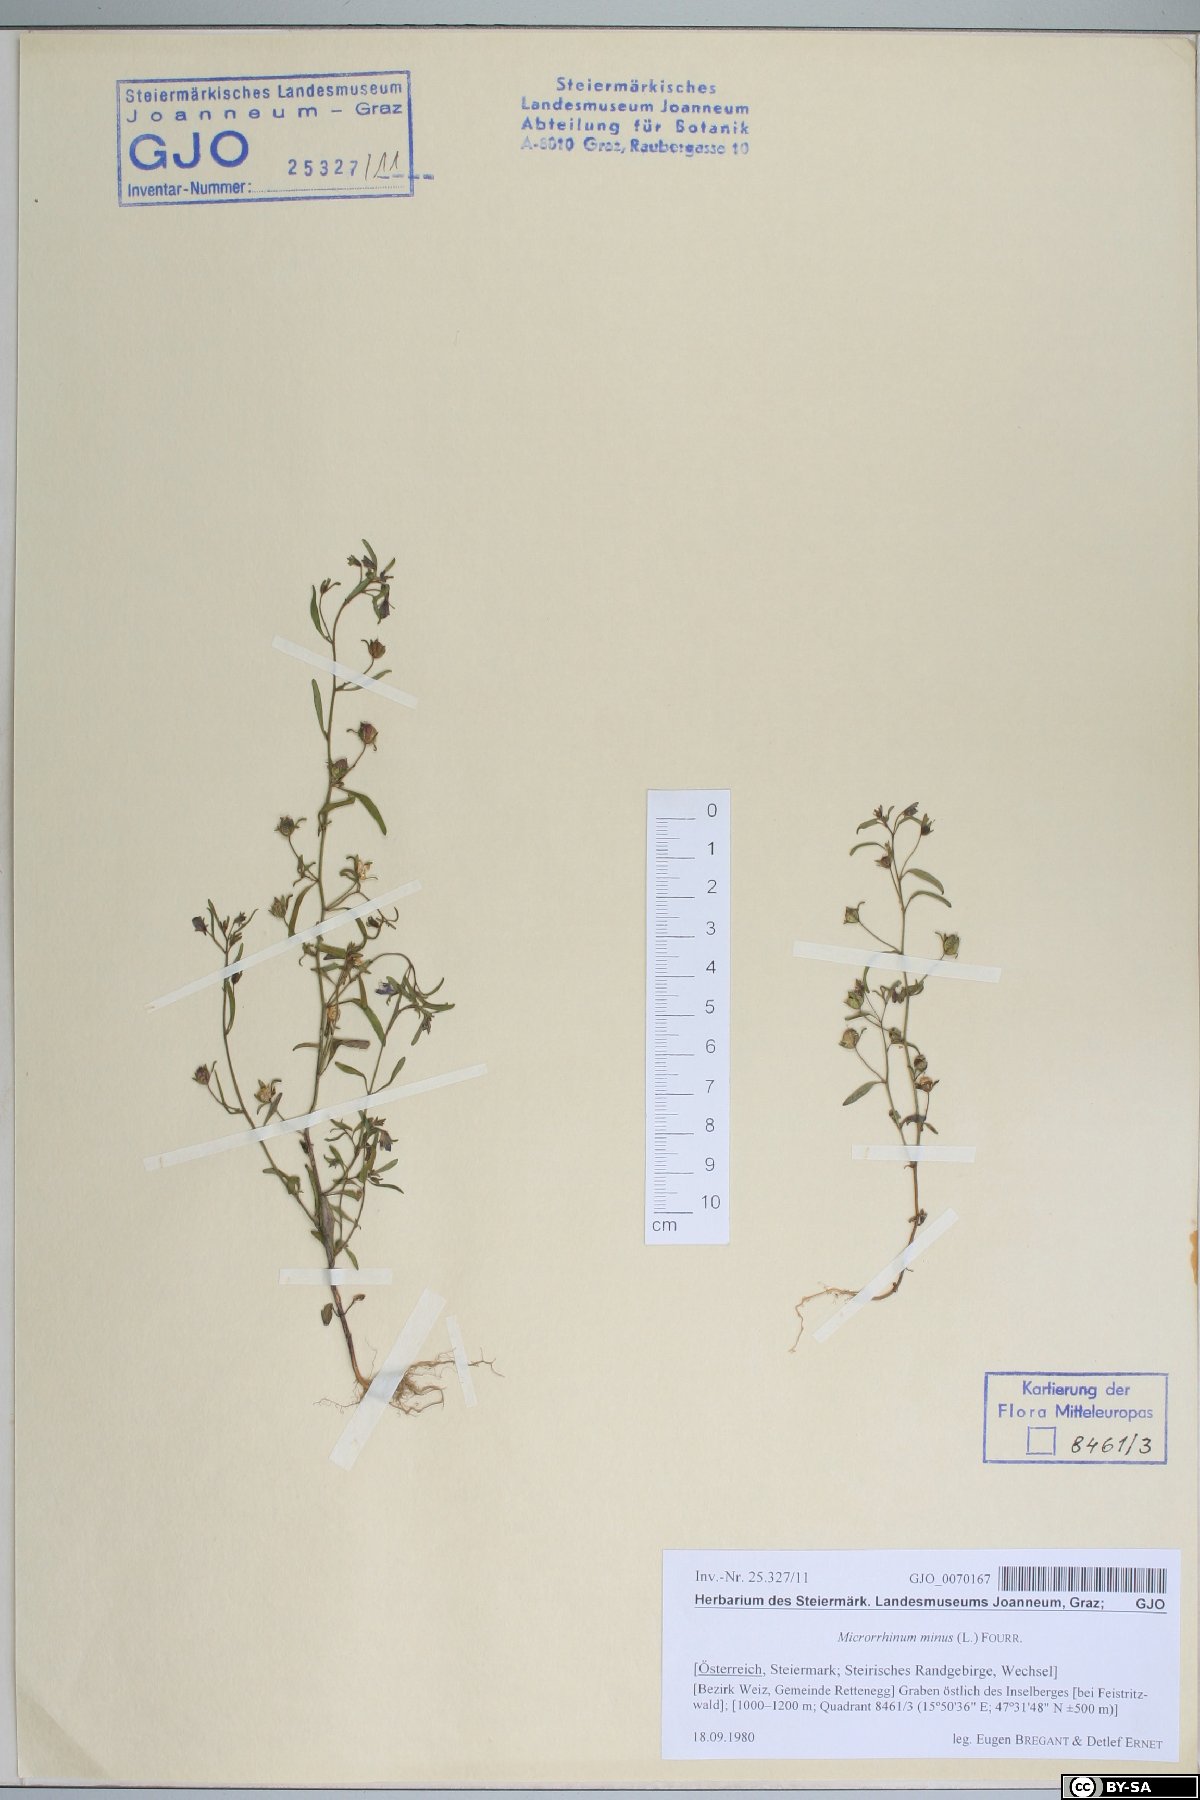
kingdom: Plantae
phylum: Tracheophyta
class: Magnoliopsida
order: Lamiales
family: Plantaginaceae
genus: Chaenorhinum
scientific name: Chaenorhinum minus
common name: Dwarf snapdragon
